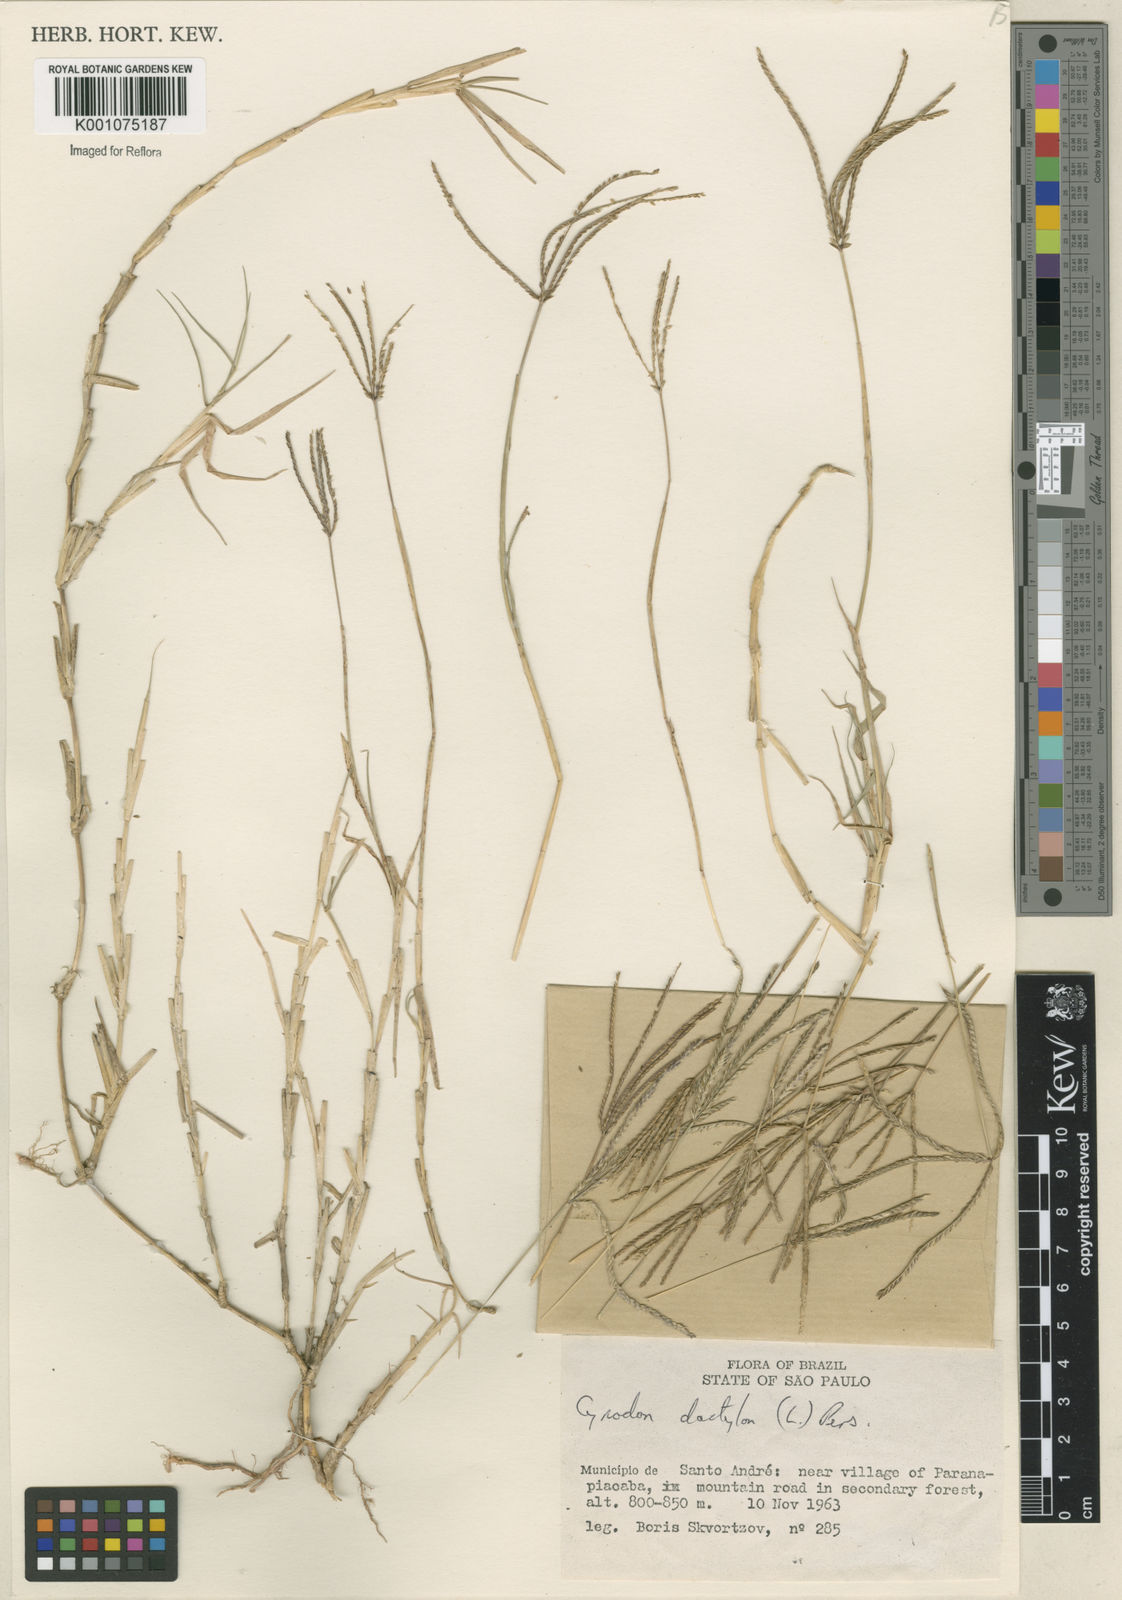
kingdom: Plantae
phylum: Tracheophyta
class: Liliopsida
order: Poales
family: Poaceae
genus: Cynodon
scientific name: Cynodon dactylon
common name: Bermuda grass
